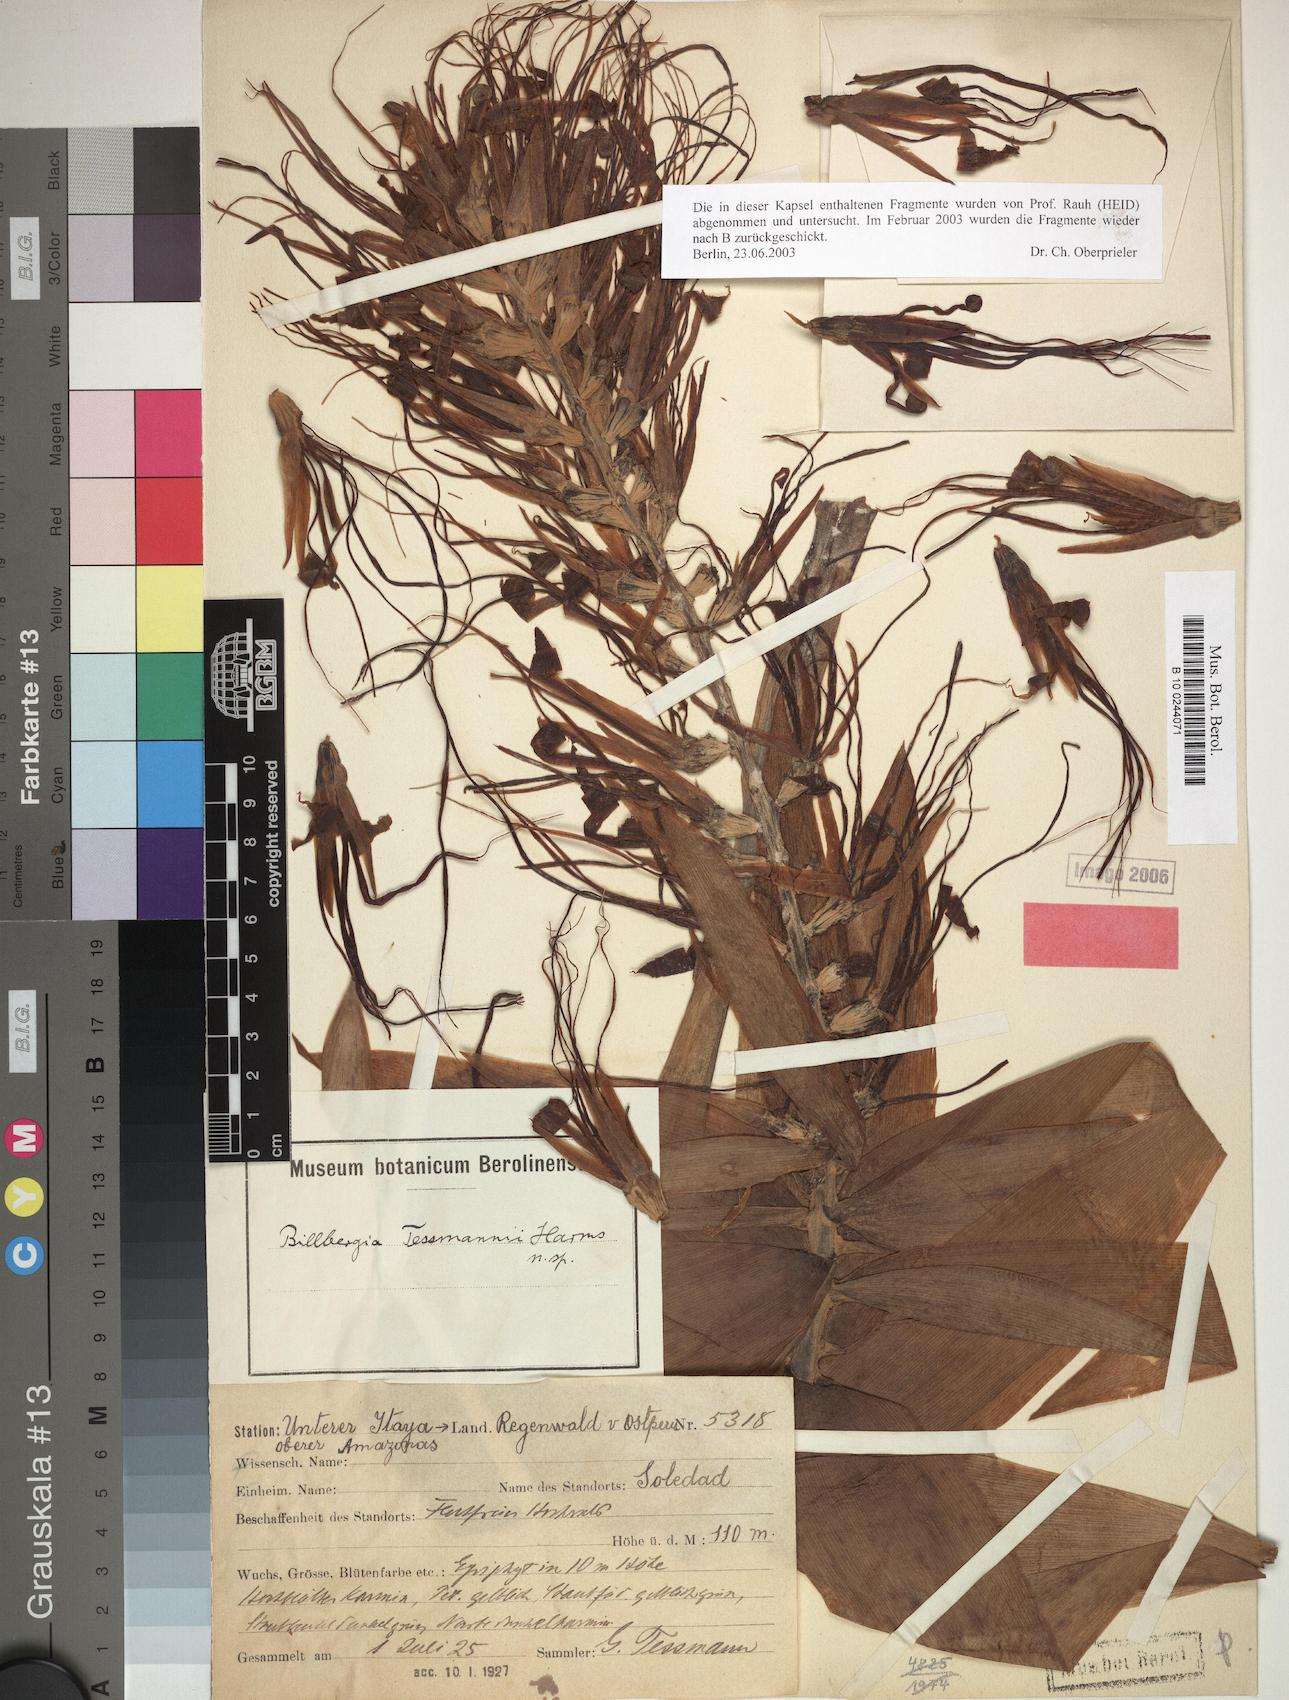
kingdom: Plantae
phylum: Tracheophyta
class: Liliopsida
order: Poales
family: Bromeliaceae
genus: Billbergia
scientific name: Billbergia tessmannii
